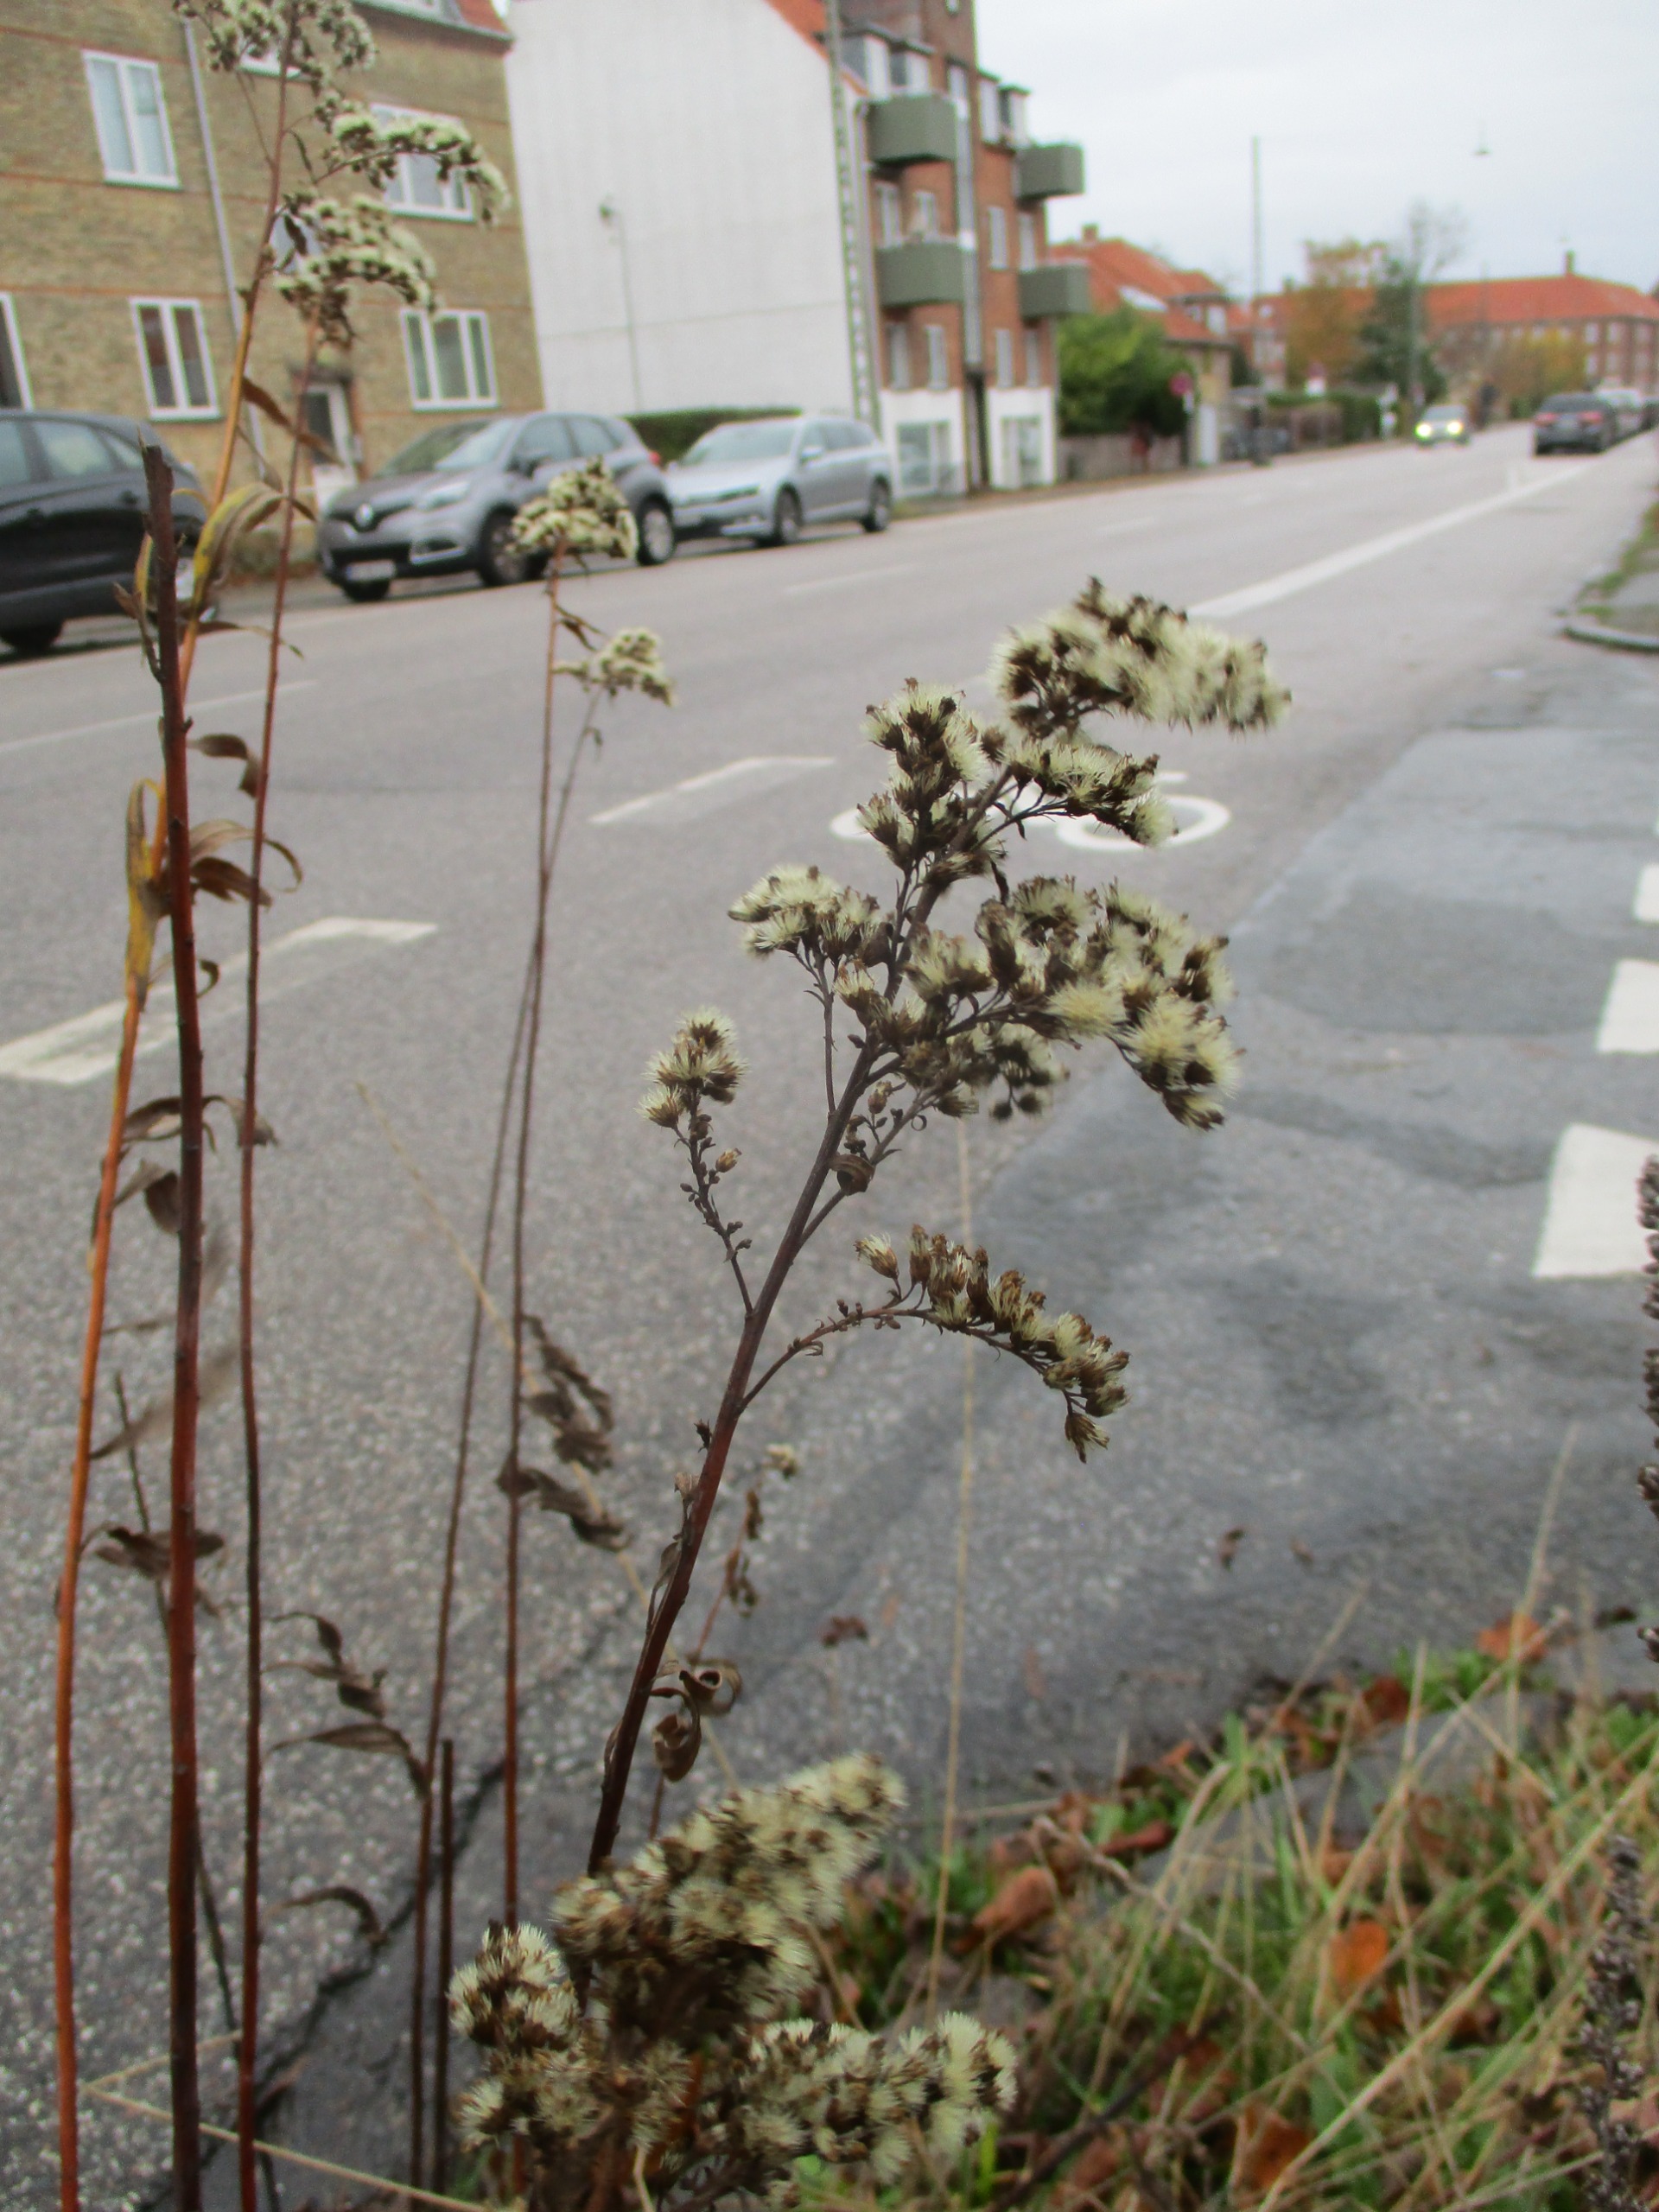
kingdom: Plantae
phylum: Tracheophyta
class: Magnoliopsida
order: Asterales
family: Asteraceae
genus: Solidago
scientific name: Solidago gigantea
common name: Sildig gyldenris
